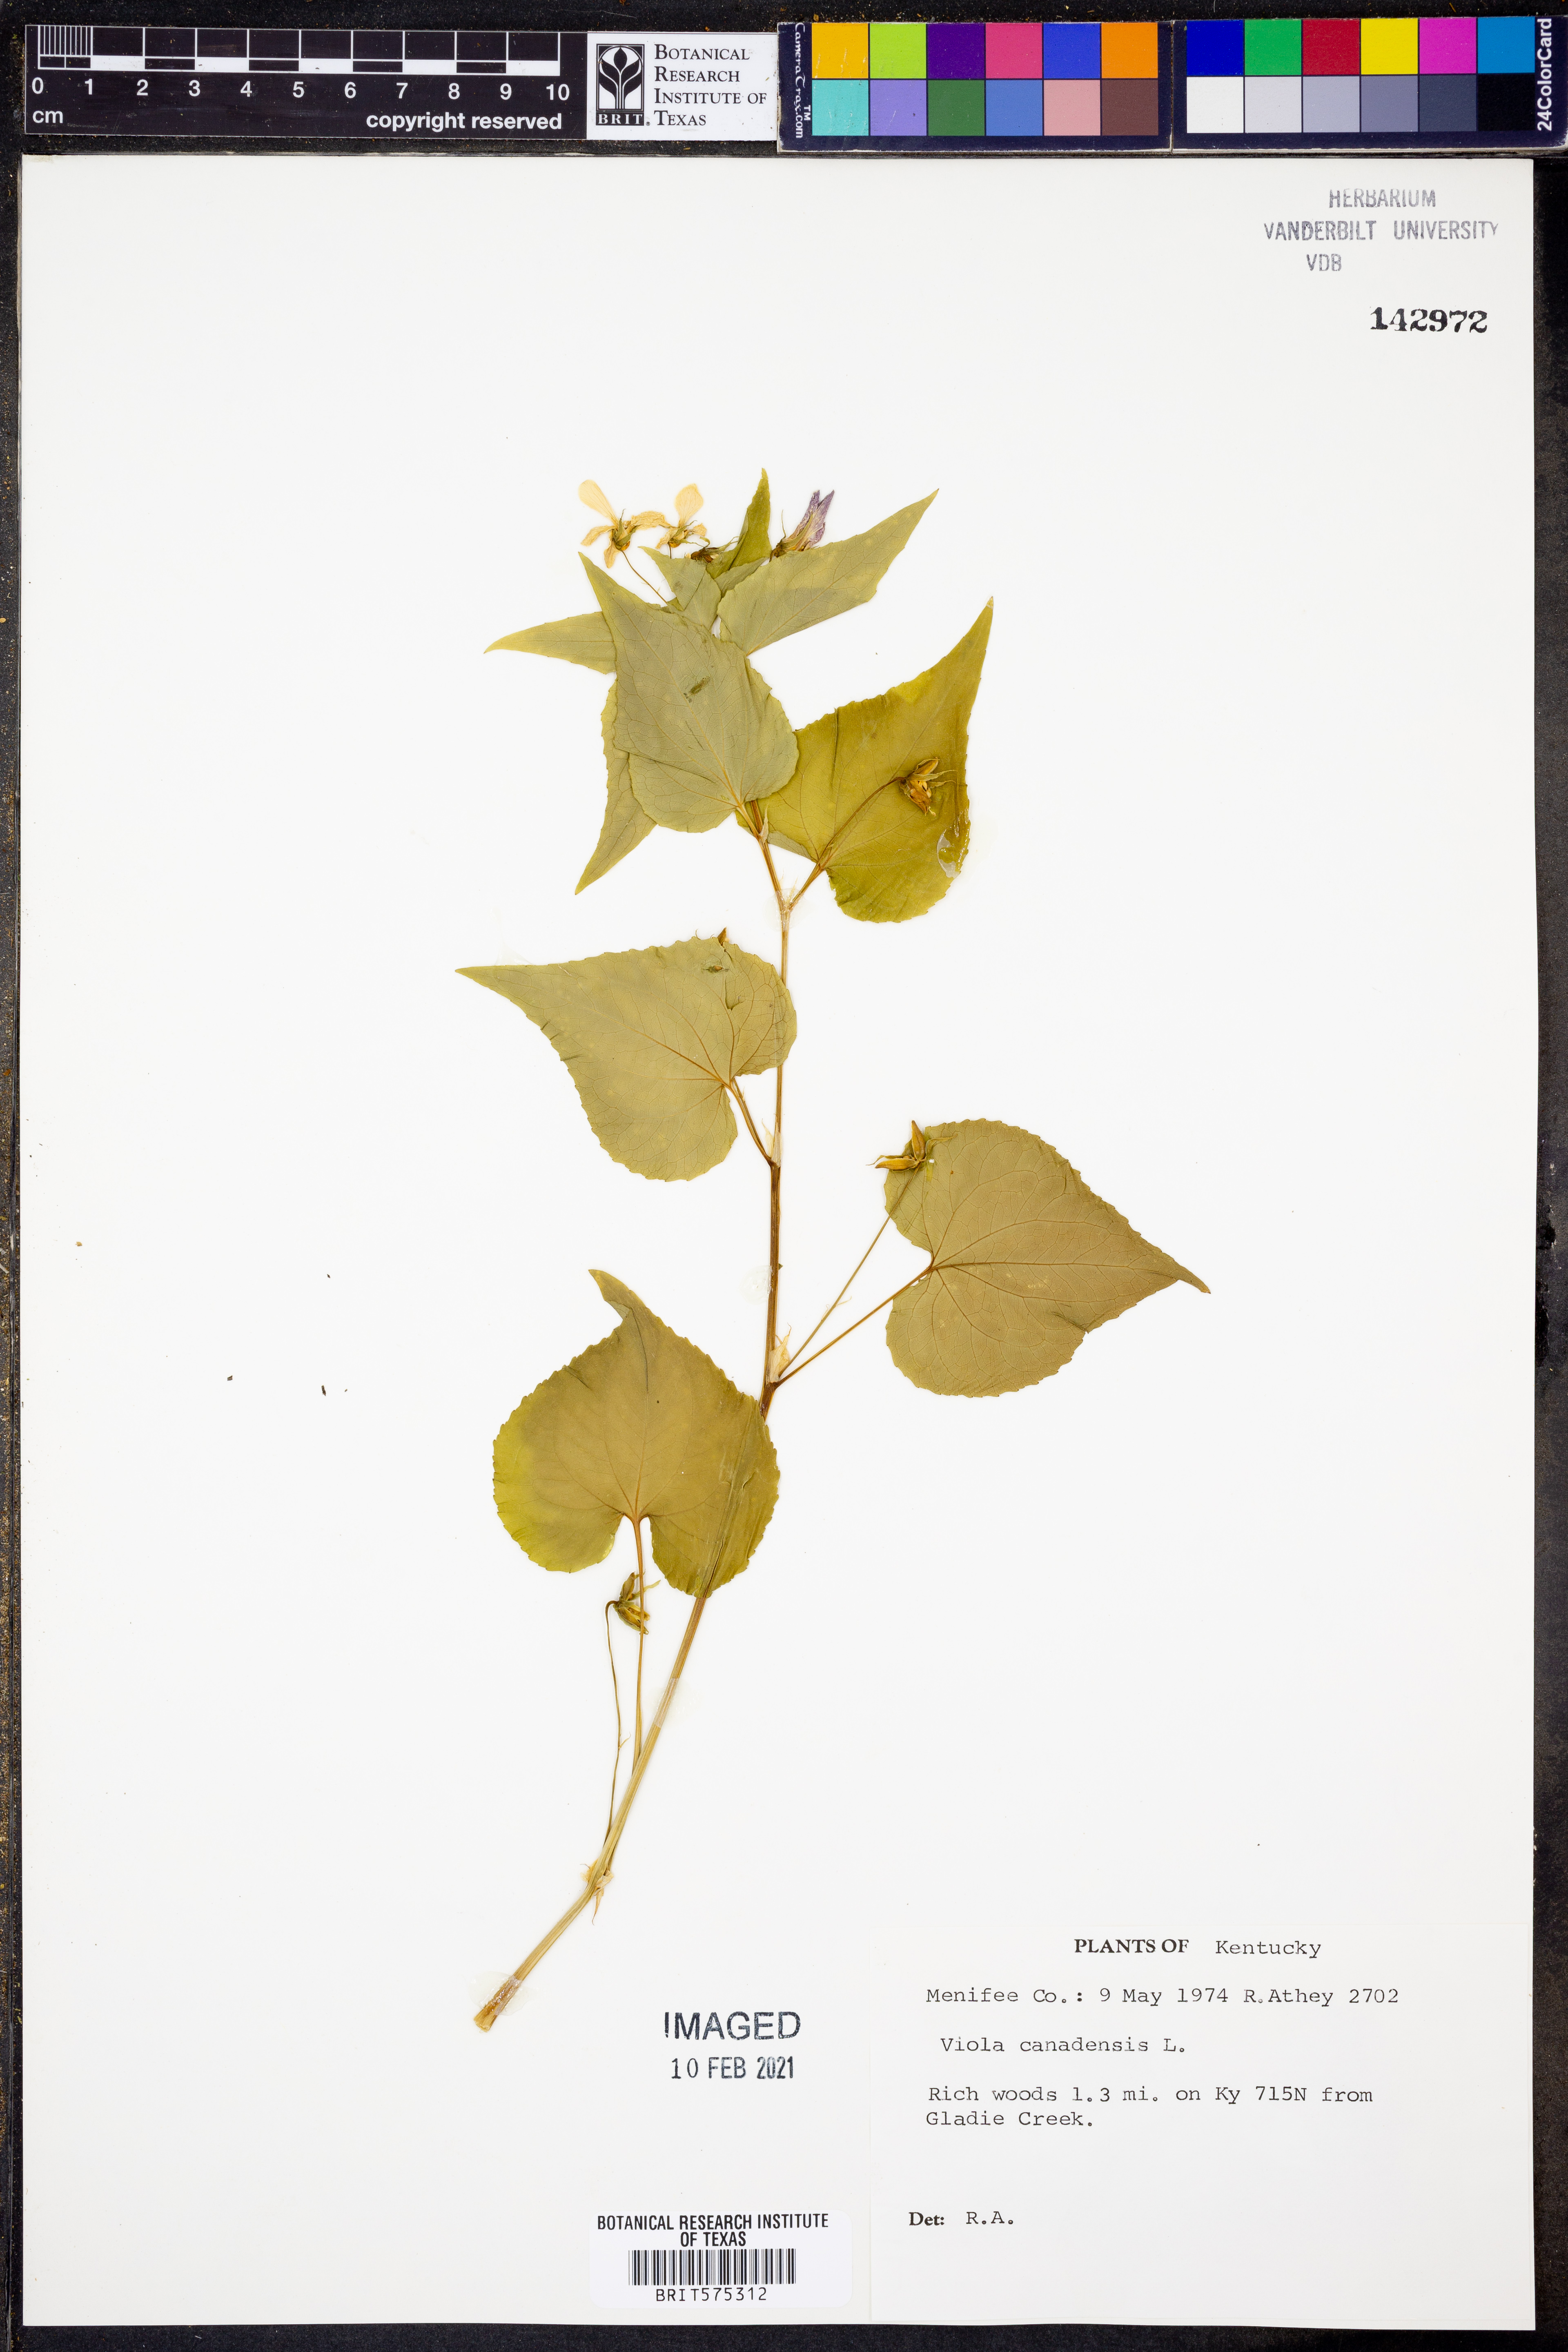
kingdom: Plantae
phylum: Tracheophyta
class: Magnoliopsida
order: Malpighiales
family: Violaceae
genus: Viola
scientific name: Viola canadensis
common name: Canada violet
